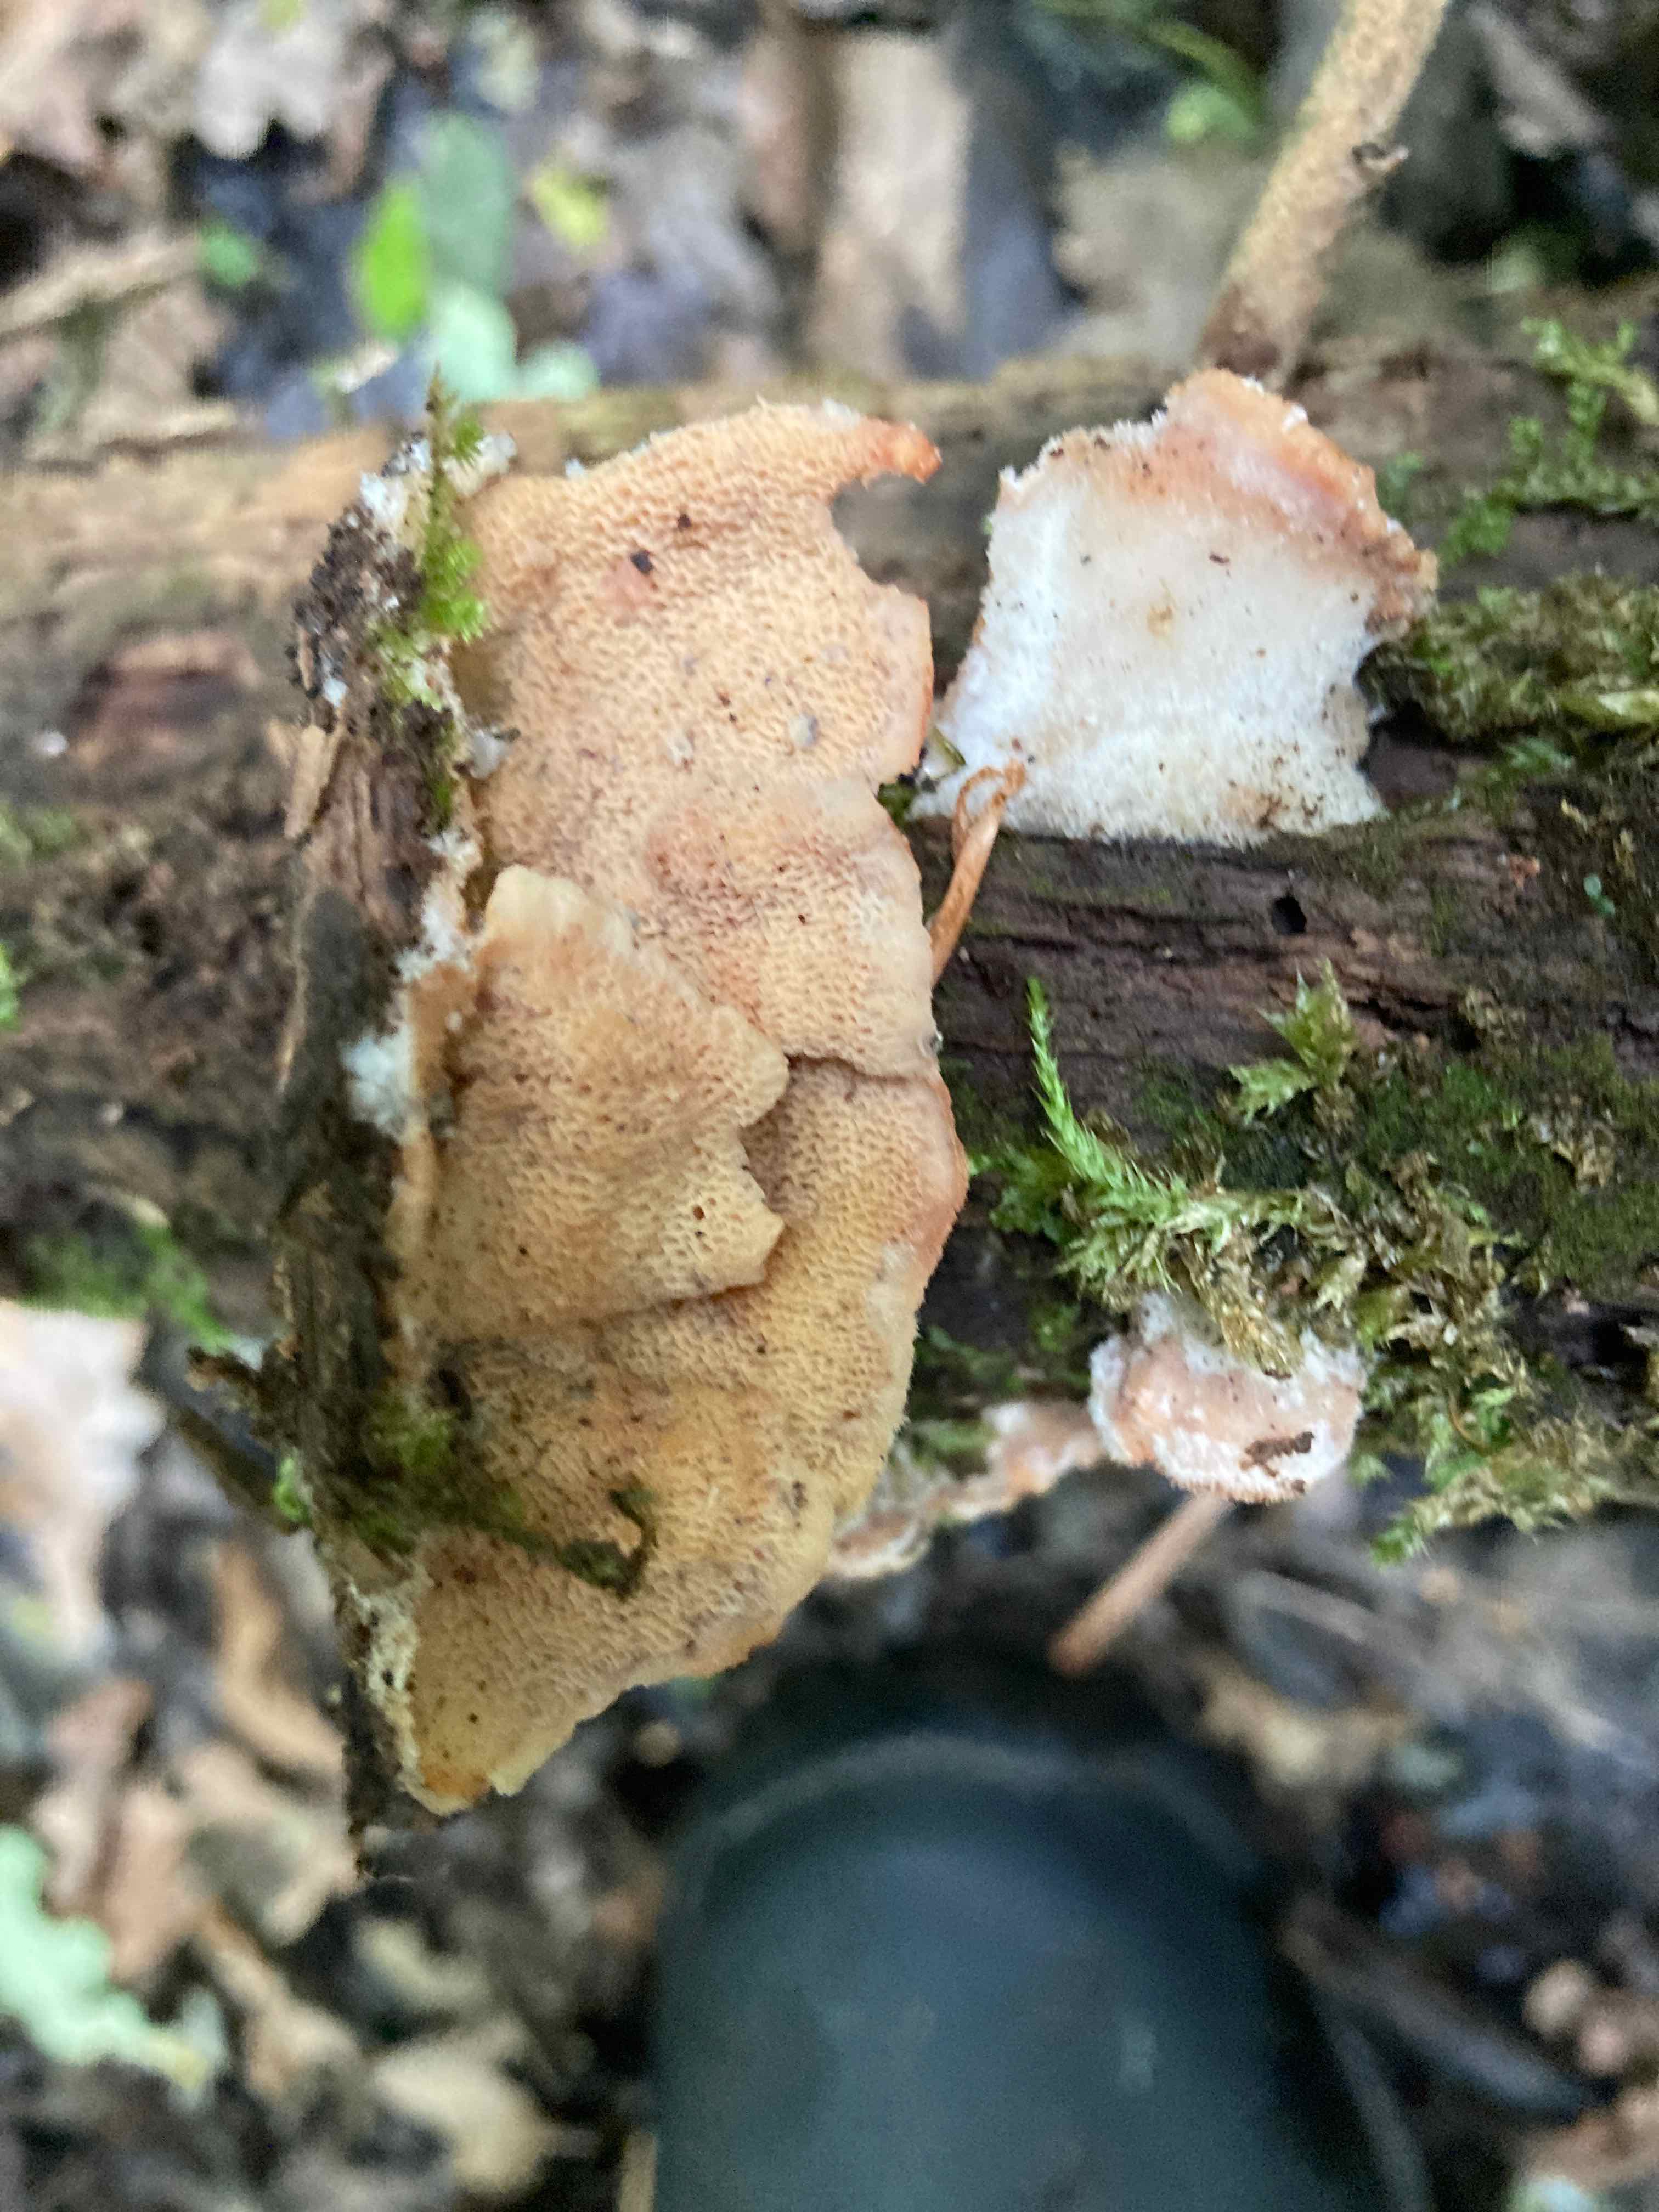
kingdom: Fungi
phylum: Basidiomycota
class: Agaricomycetes
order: Polyporales
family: Meruliaceae
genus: Phlebia
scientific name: Phlebia tremellosa
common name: bævrende åresvamp
